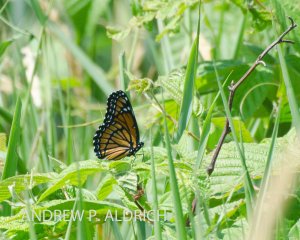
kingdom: Animalia
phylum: Arthropoda
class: Insecta
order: Lepidoptera
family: Nymphalidae
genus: Limenitis
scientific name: Limenitis archippus
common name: Viceroy
